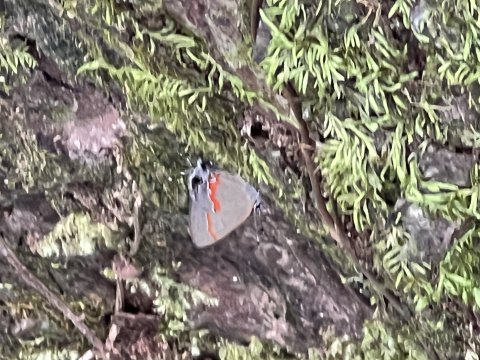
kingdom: Animalia
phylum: Arthropoda
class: Insecta
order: Lepidoptera
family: Lycaenidae
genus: Calycopis
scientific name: Calycopis cecrops
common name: Red-banded Hairstreak
